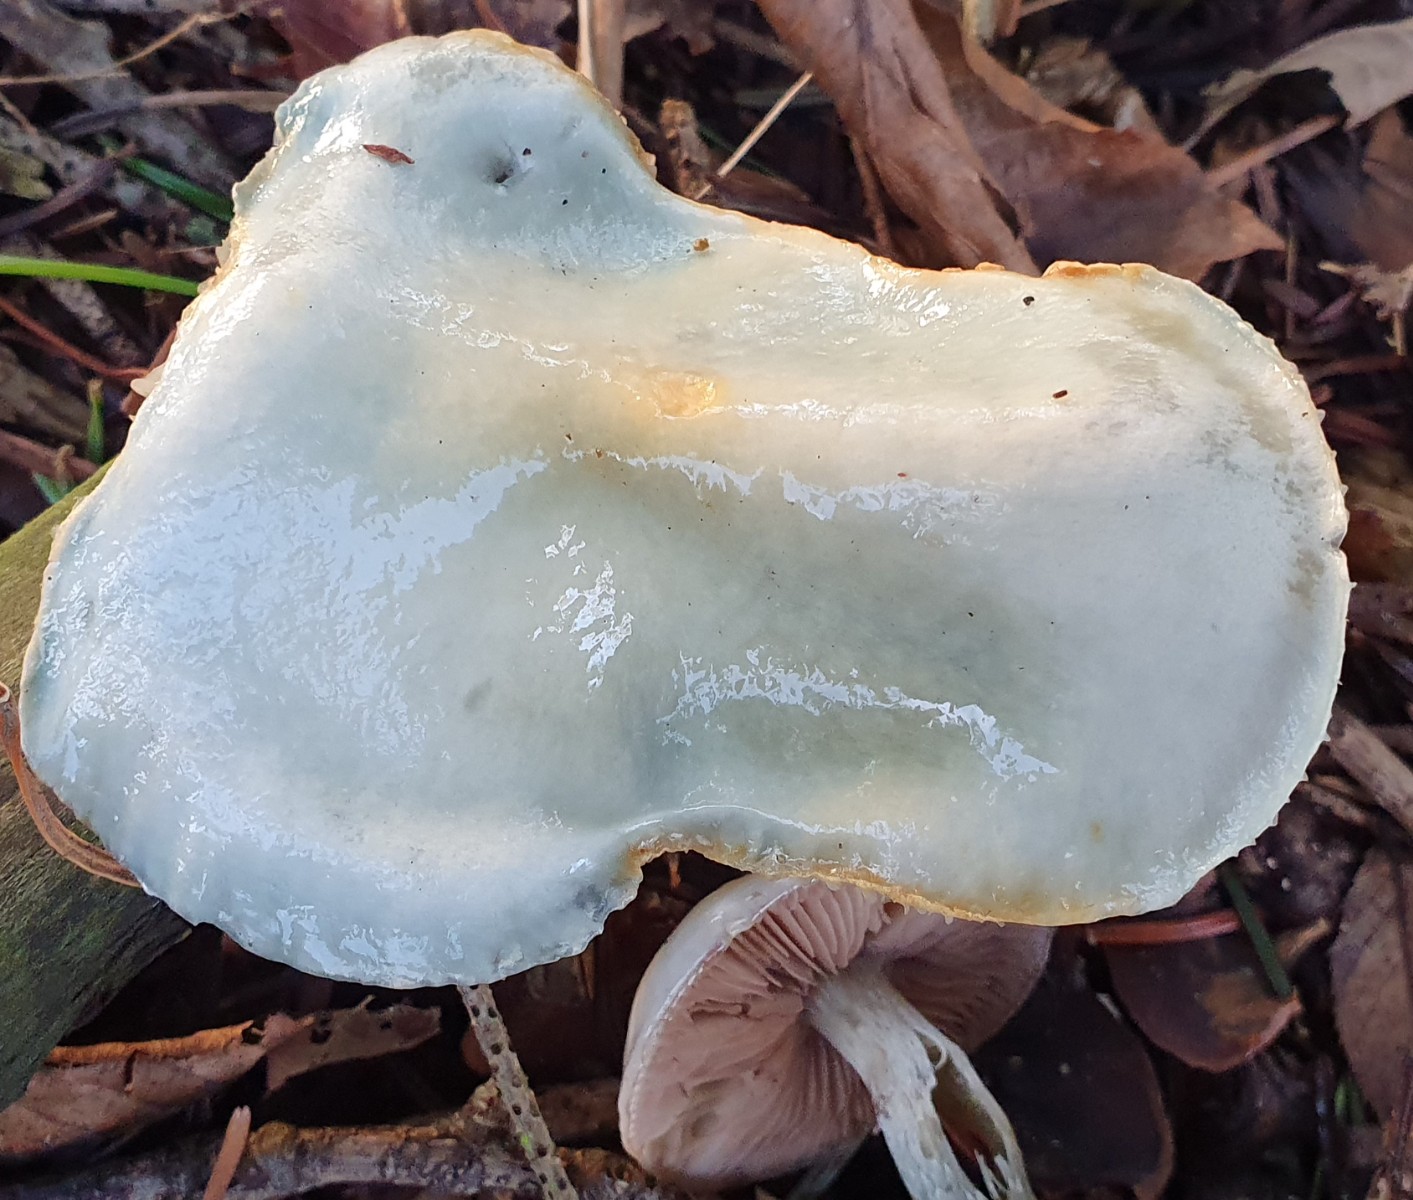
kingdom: Fungi
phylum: Basidiomycota
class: Agaricomycetes
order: Agaricales
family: Strophariaceae
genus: Stropharia
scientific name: Stropharia cyanea
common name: blågrøn bredblad
